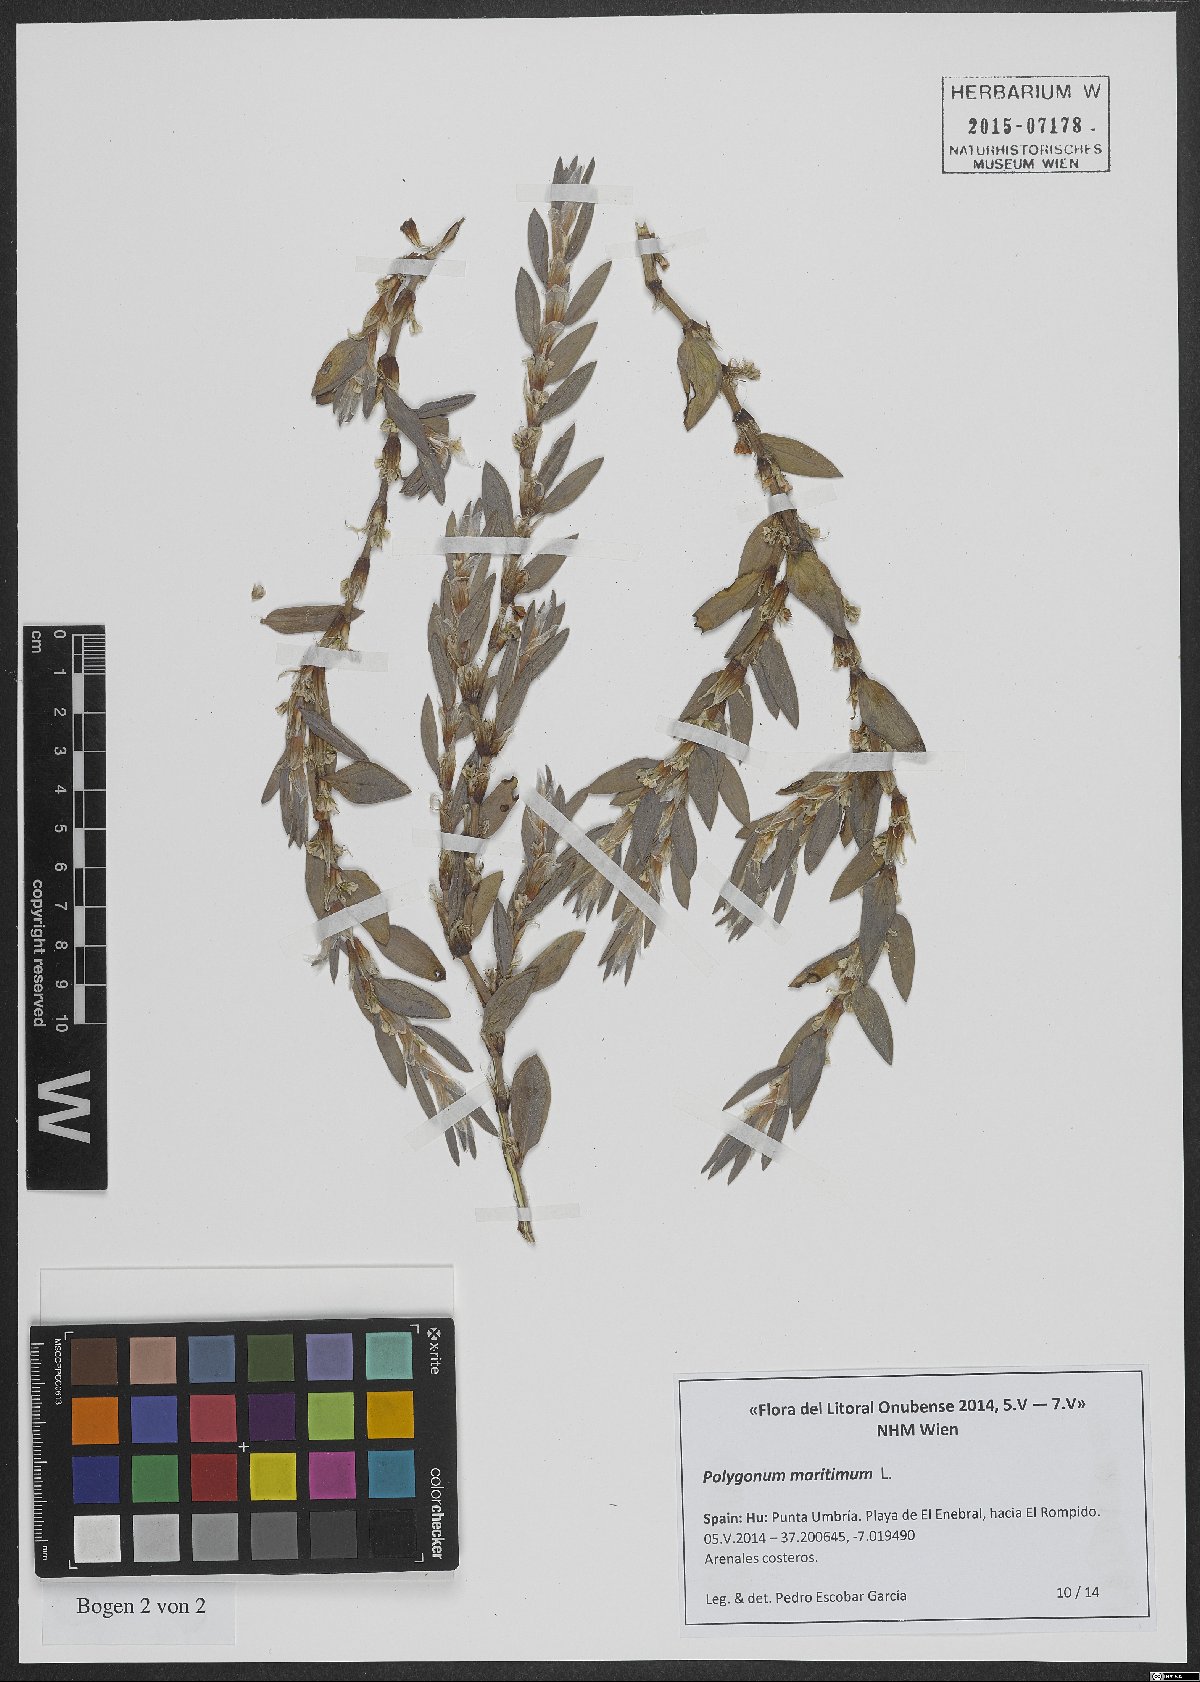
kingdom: Plantae
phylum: Tracheophyta
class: Magnoliopsida
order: Caryophyllales
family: Polygonaceae
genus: Polygonum
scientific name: Polygonum maritimum
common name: Sea knotgrass
